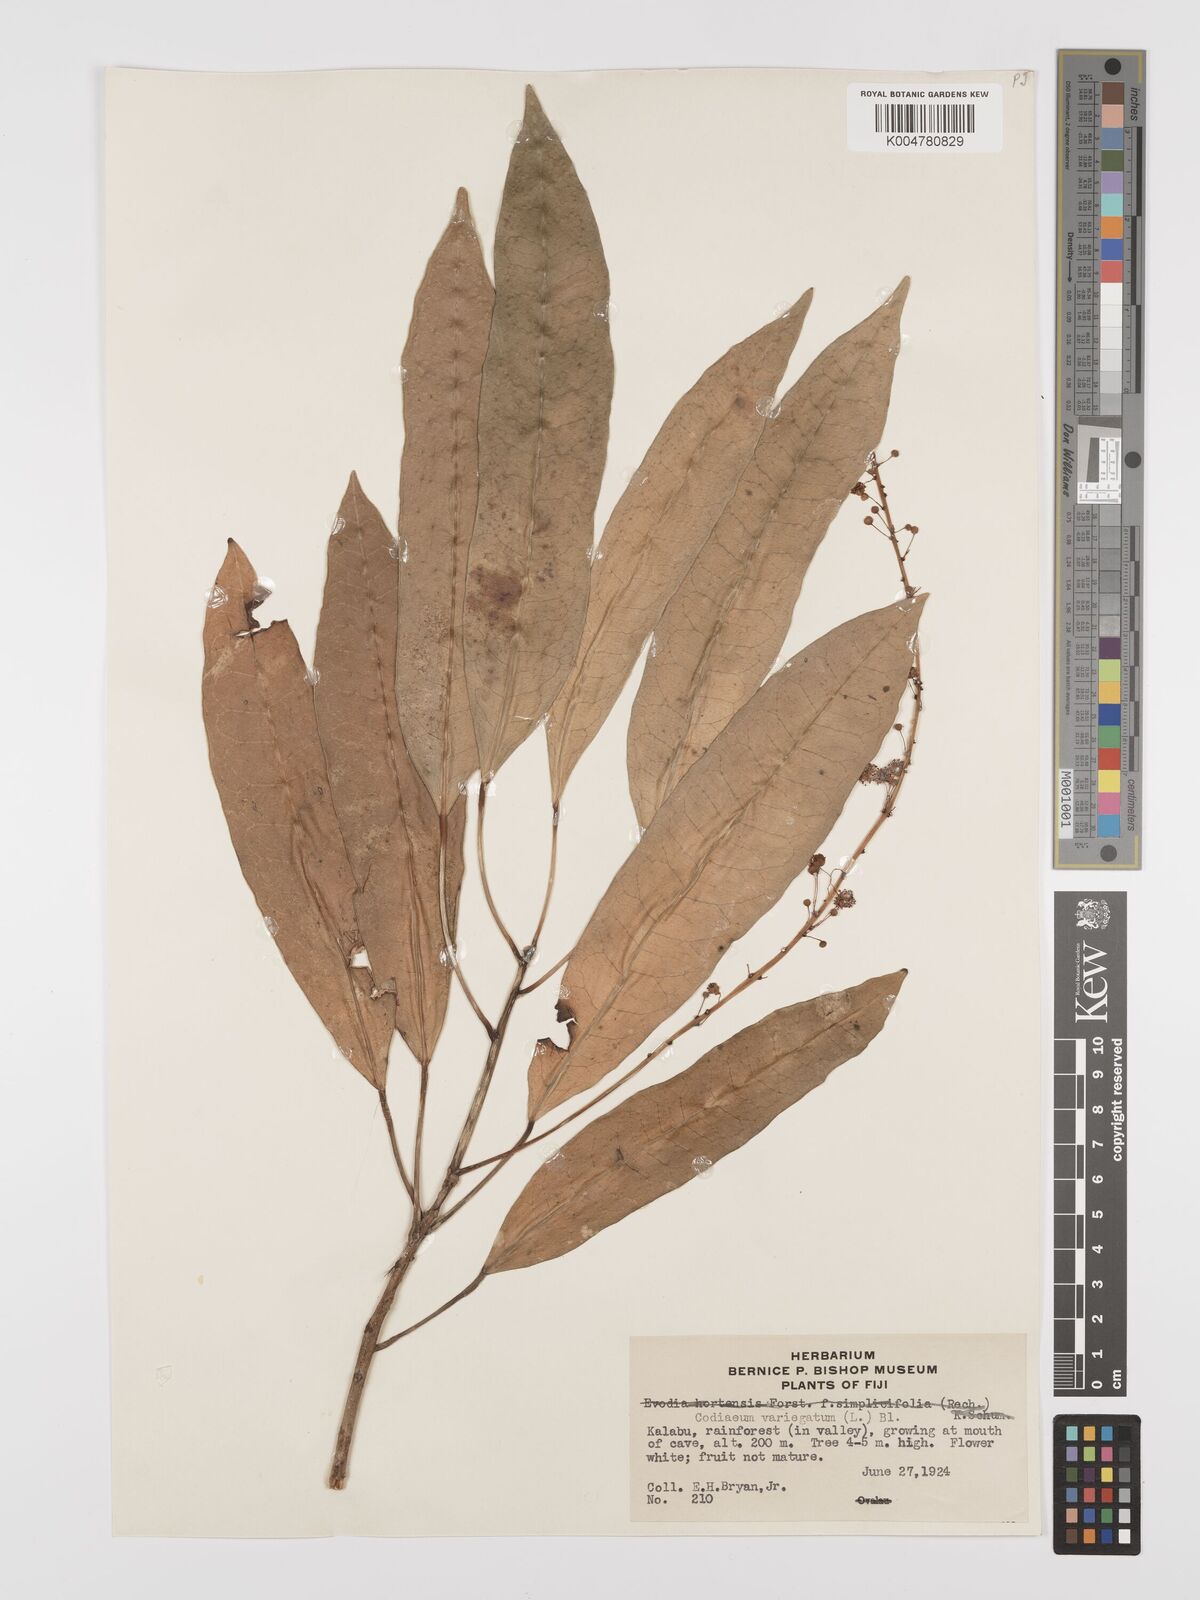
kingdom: Plantae
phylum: Tracheophyta
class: Magnoliopsida
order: Malpighiales
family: Euphorbiaceae
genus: Codiaeum
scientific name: Codiaeum variegatum
